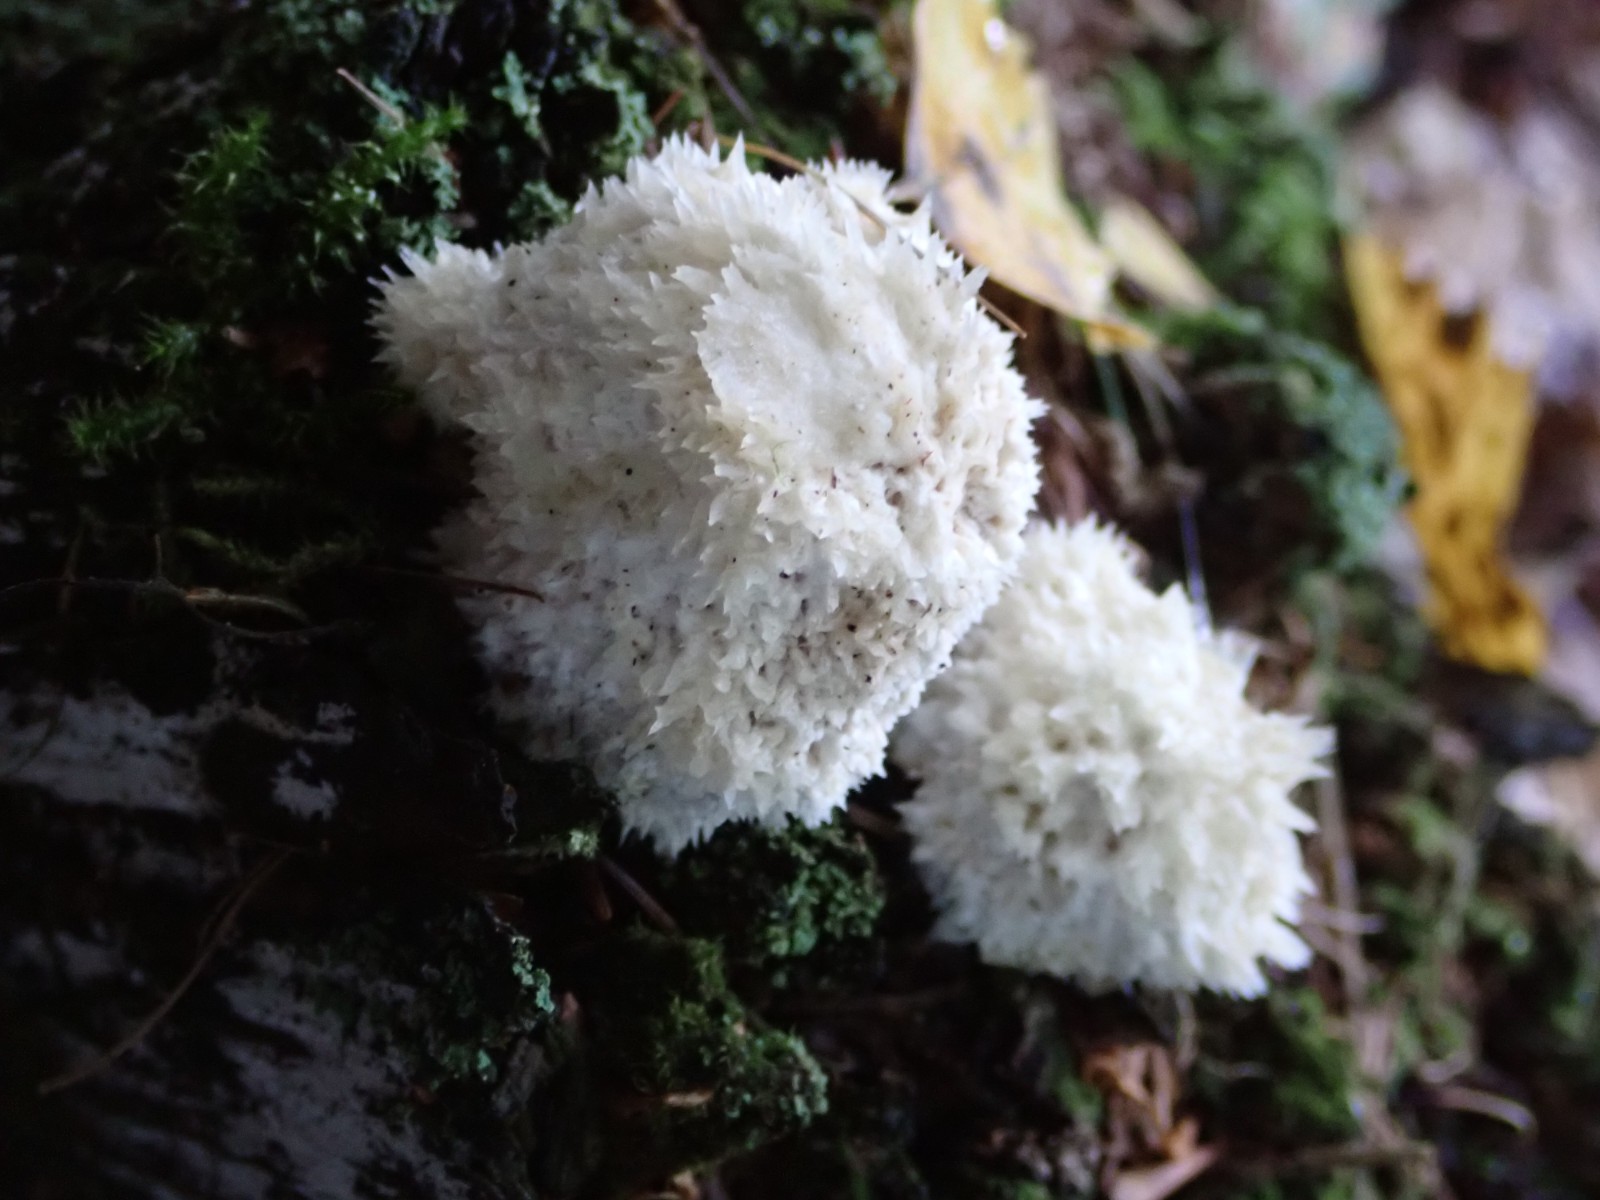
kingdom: Fungi
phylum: Basidiomycota
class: Agaricomycetes
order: Polyporales
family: Dacryobolaceae
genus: Postia
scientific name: Postia ptychogaster
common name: støvende kødporesvamp
